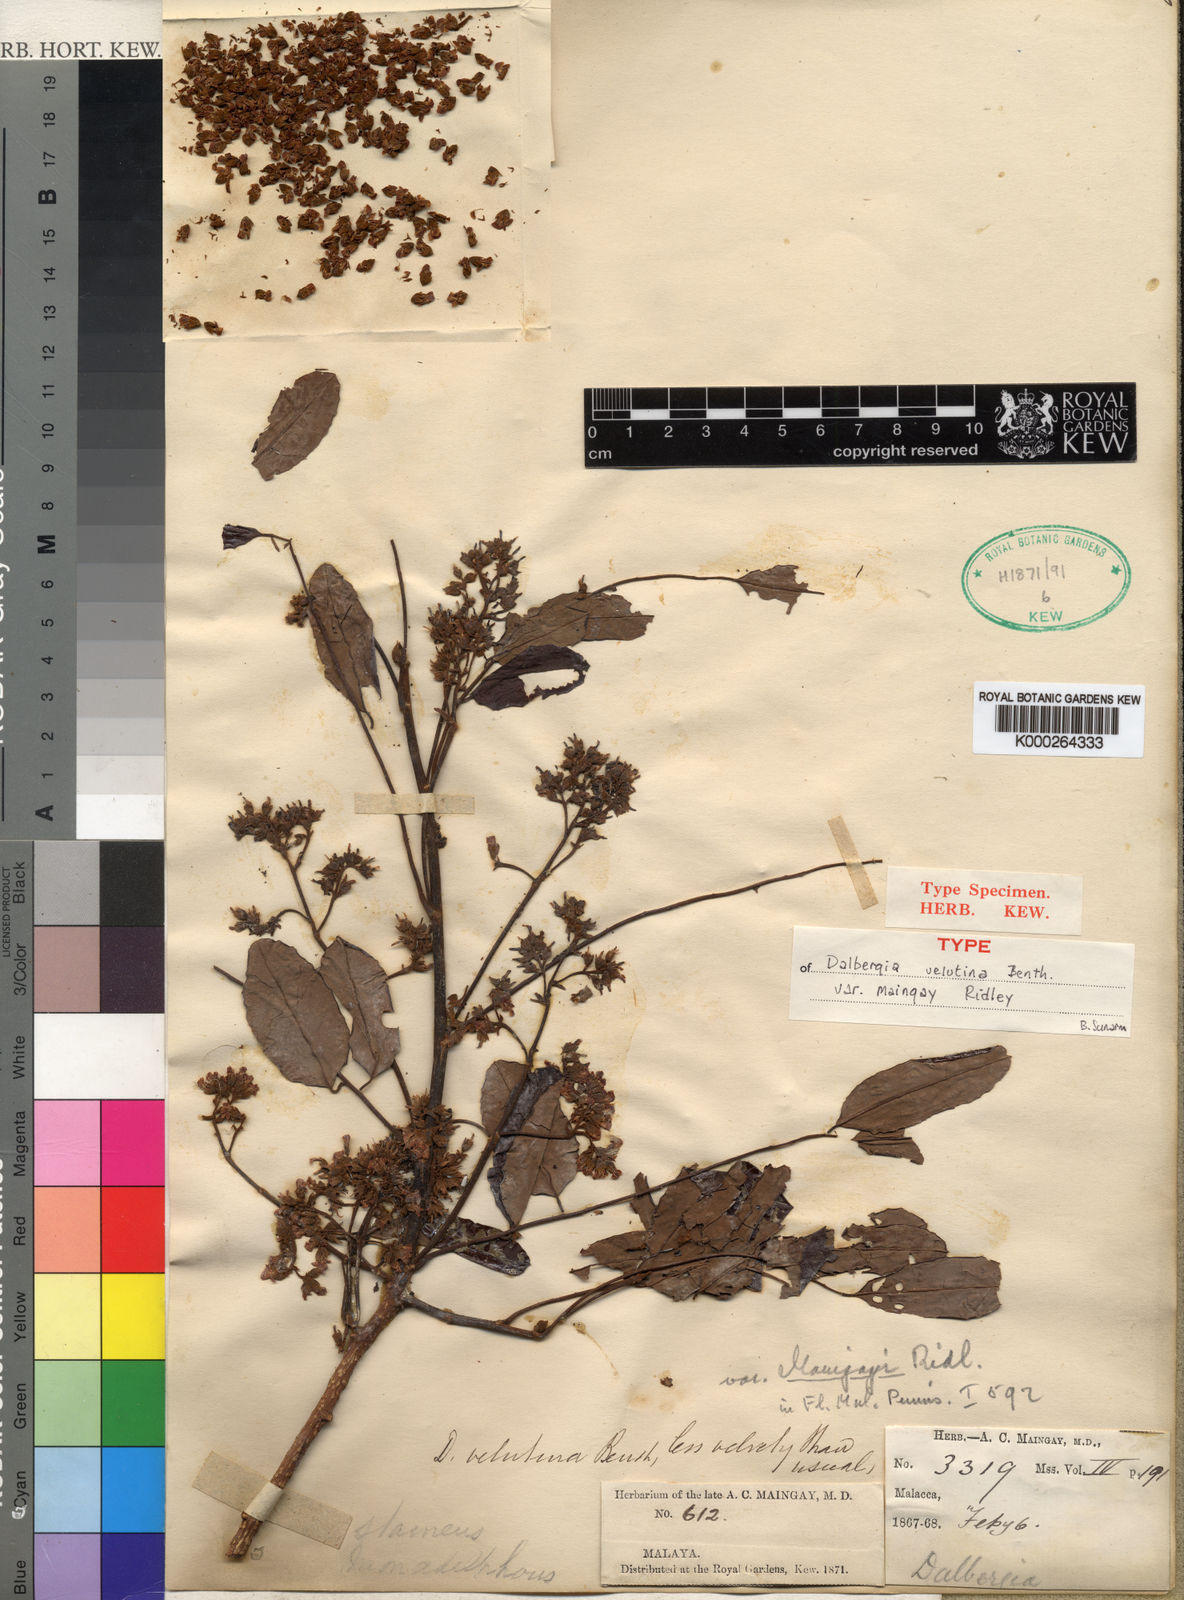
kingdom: Plantae
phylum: Tracheophyta
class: Magnoliopsida
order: Fabales
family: Fabaceae
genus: Dalbergia
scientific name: Dalbergia velutina
